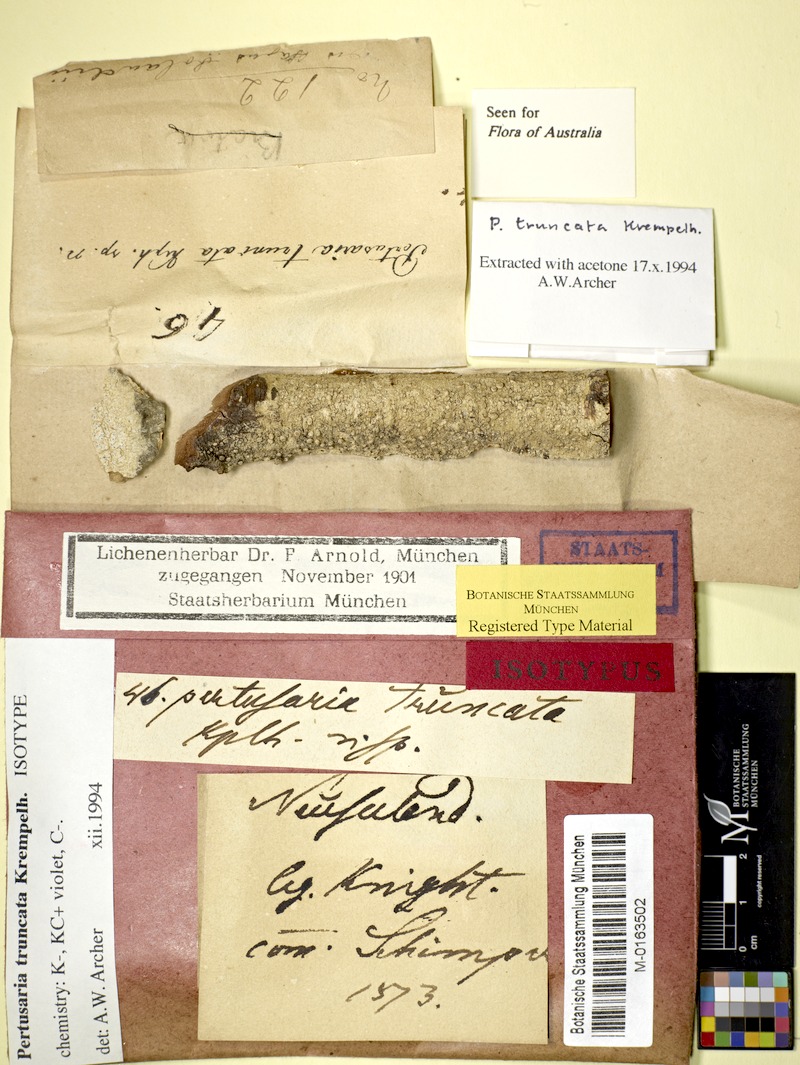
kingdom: Fungi
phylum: Ascomycota
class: Lecanoromycetes
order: Pertusariales
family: Pertusariaceae
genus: Lepra
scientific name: Lepra truncata
